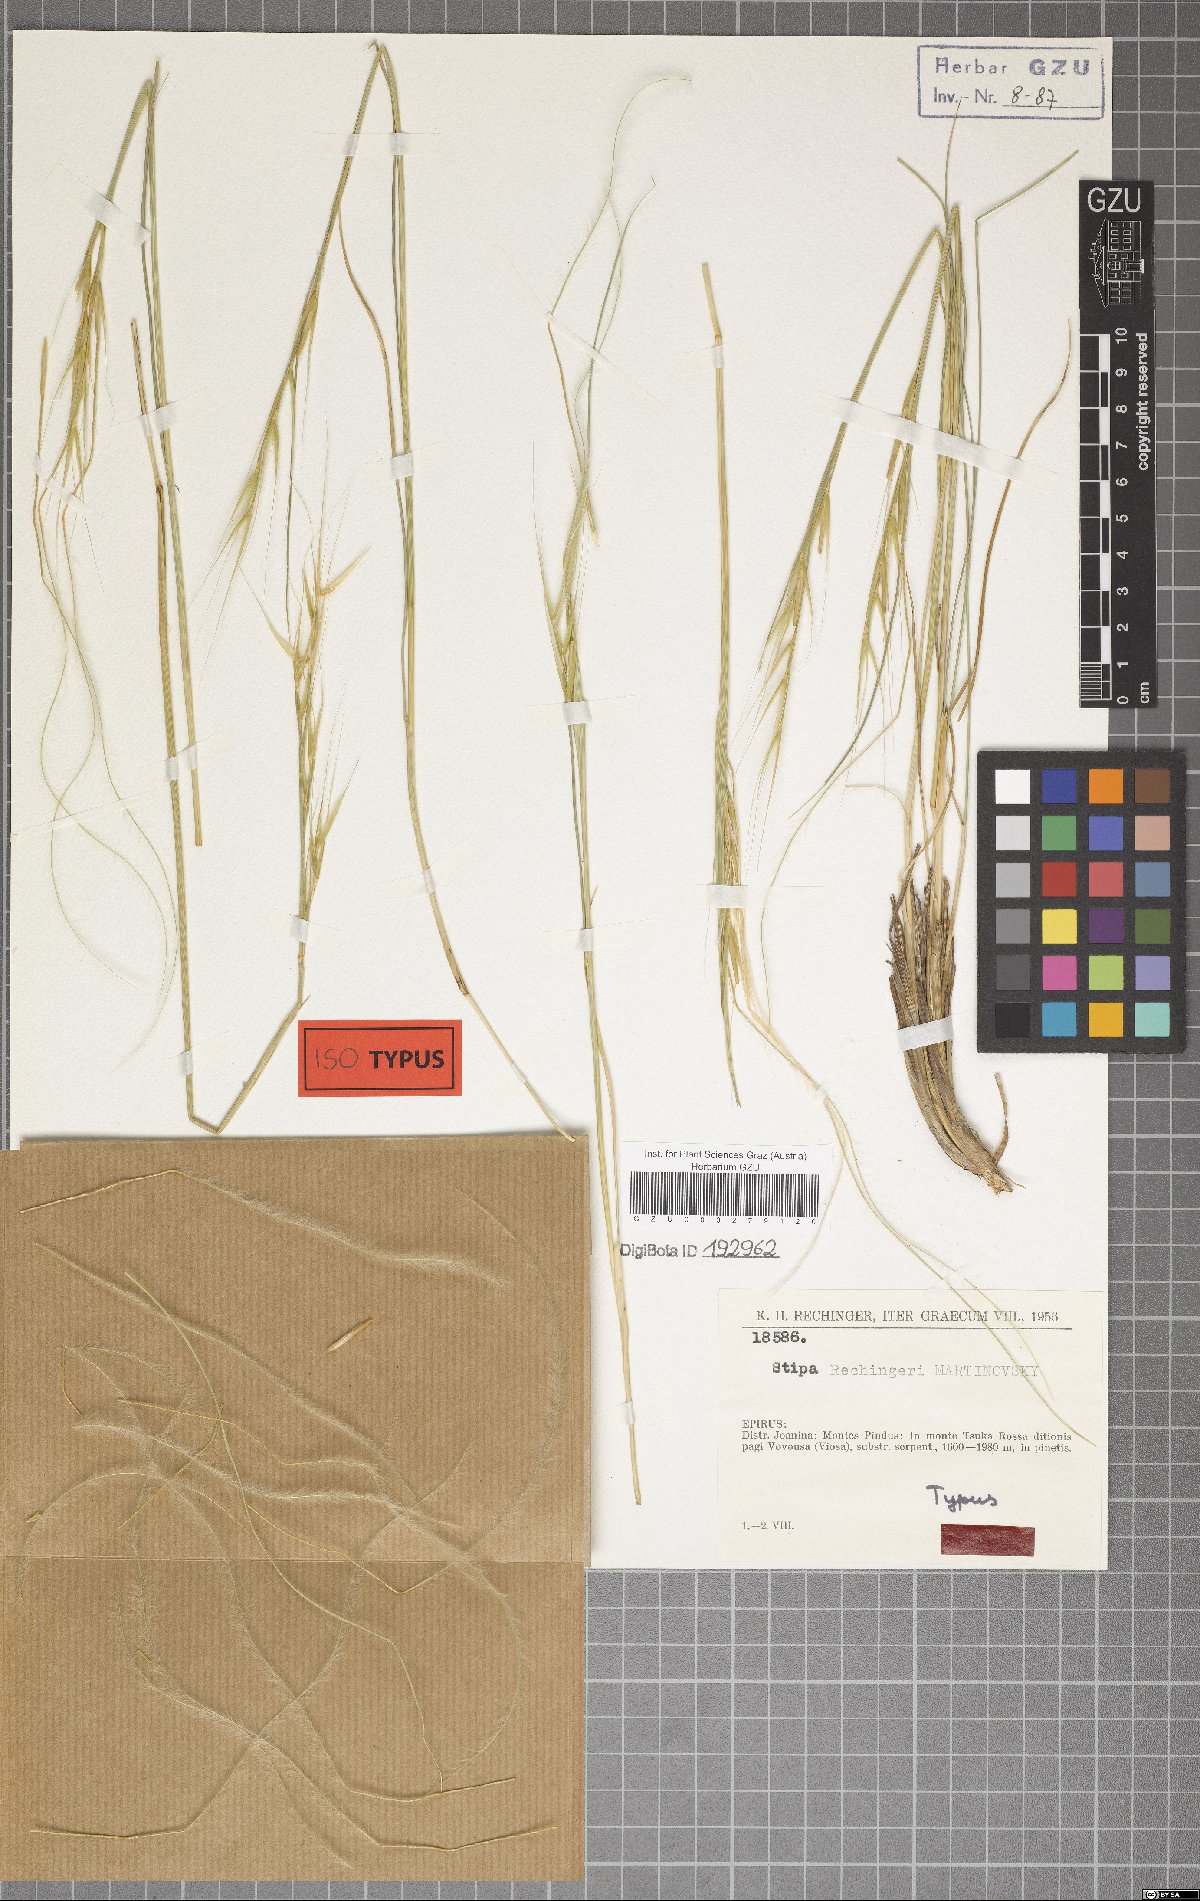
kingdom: Plantae
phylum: Tracheophyta
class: Liliopsida
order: Poales
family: Poaceae
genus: Stipa
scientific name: Stipa rechingeri
